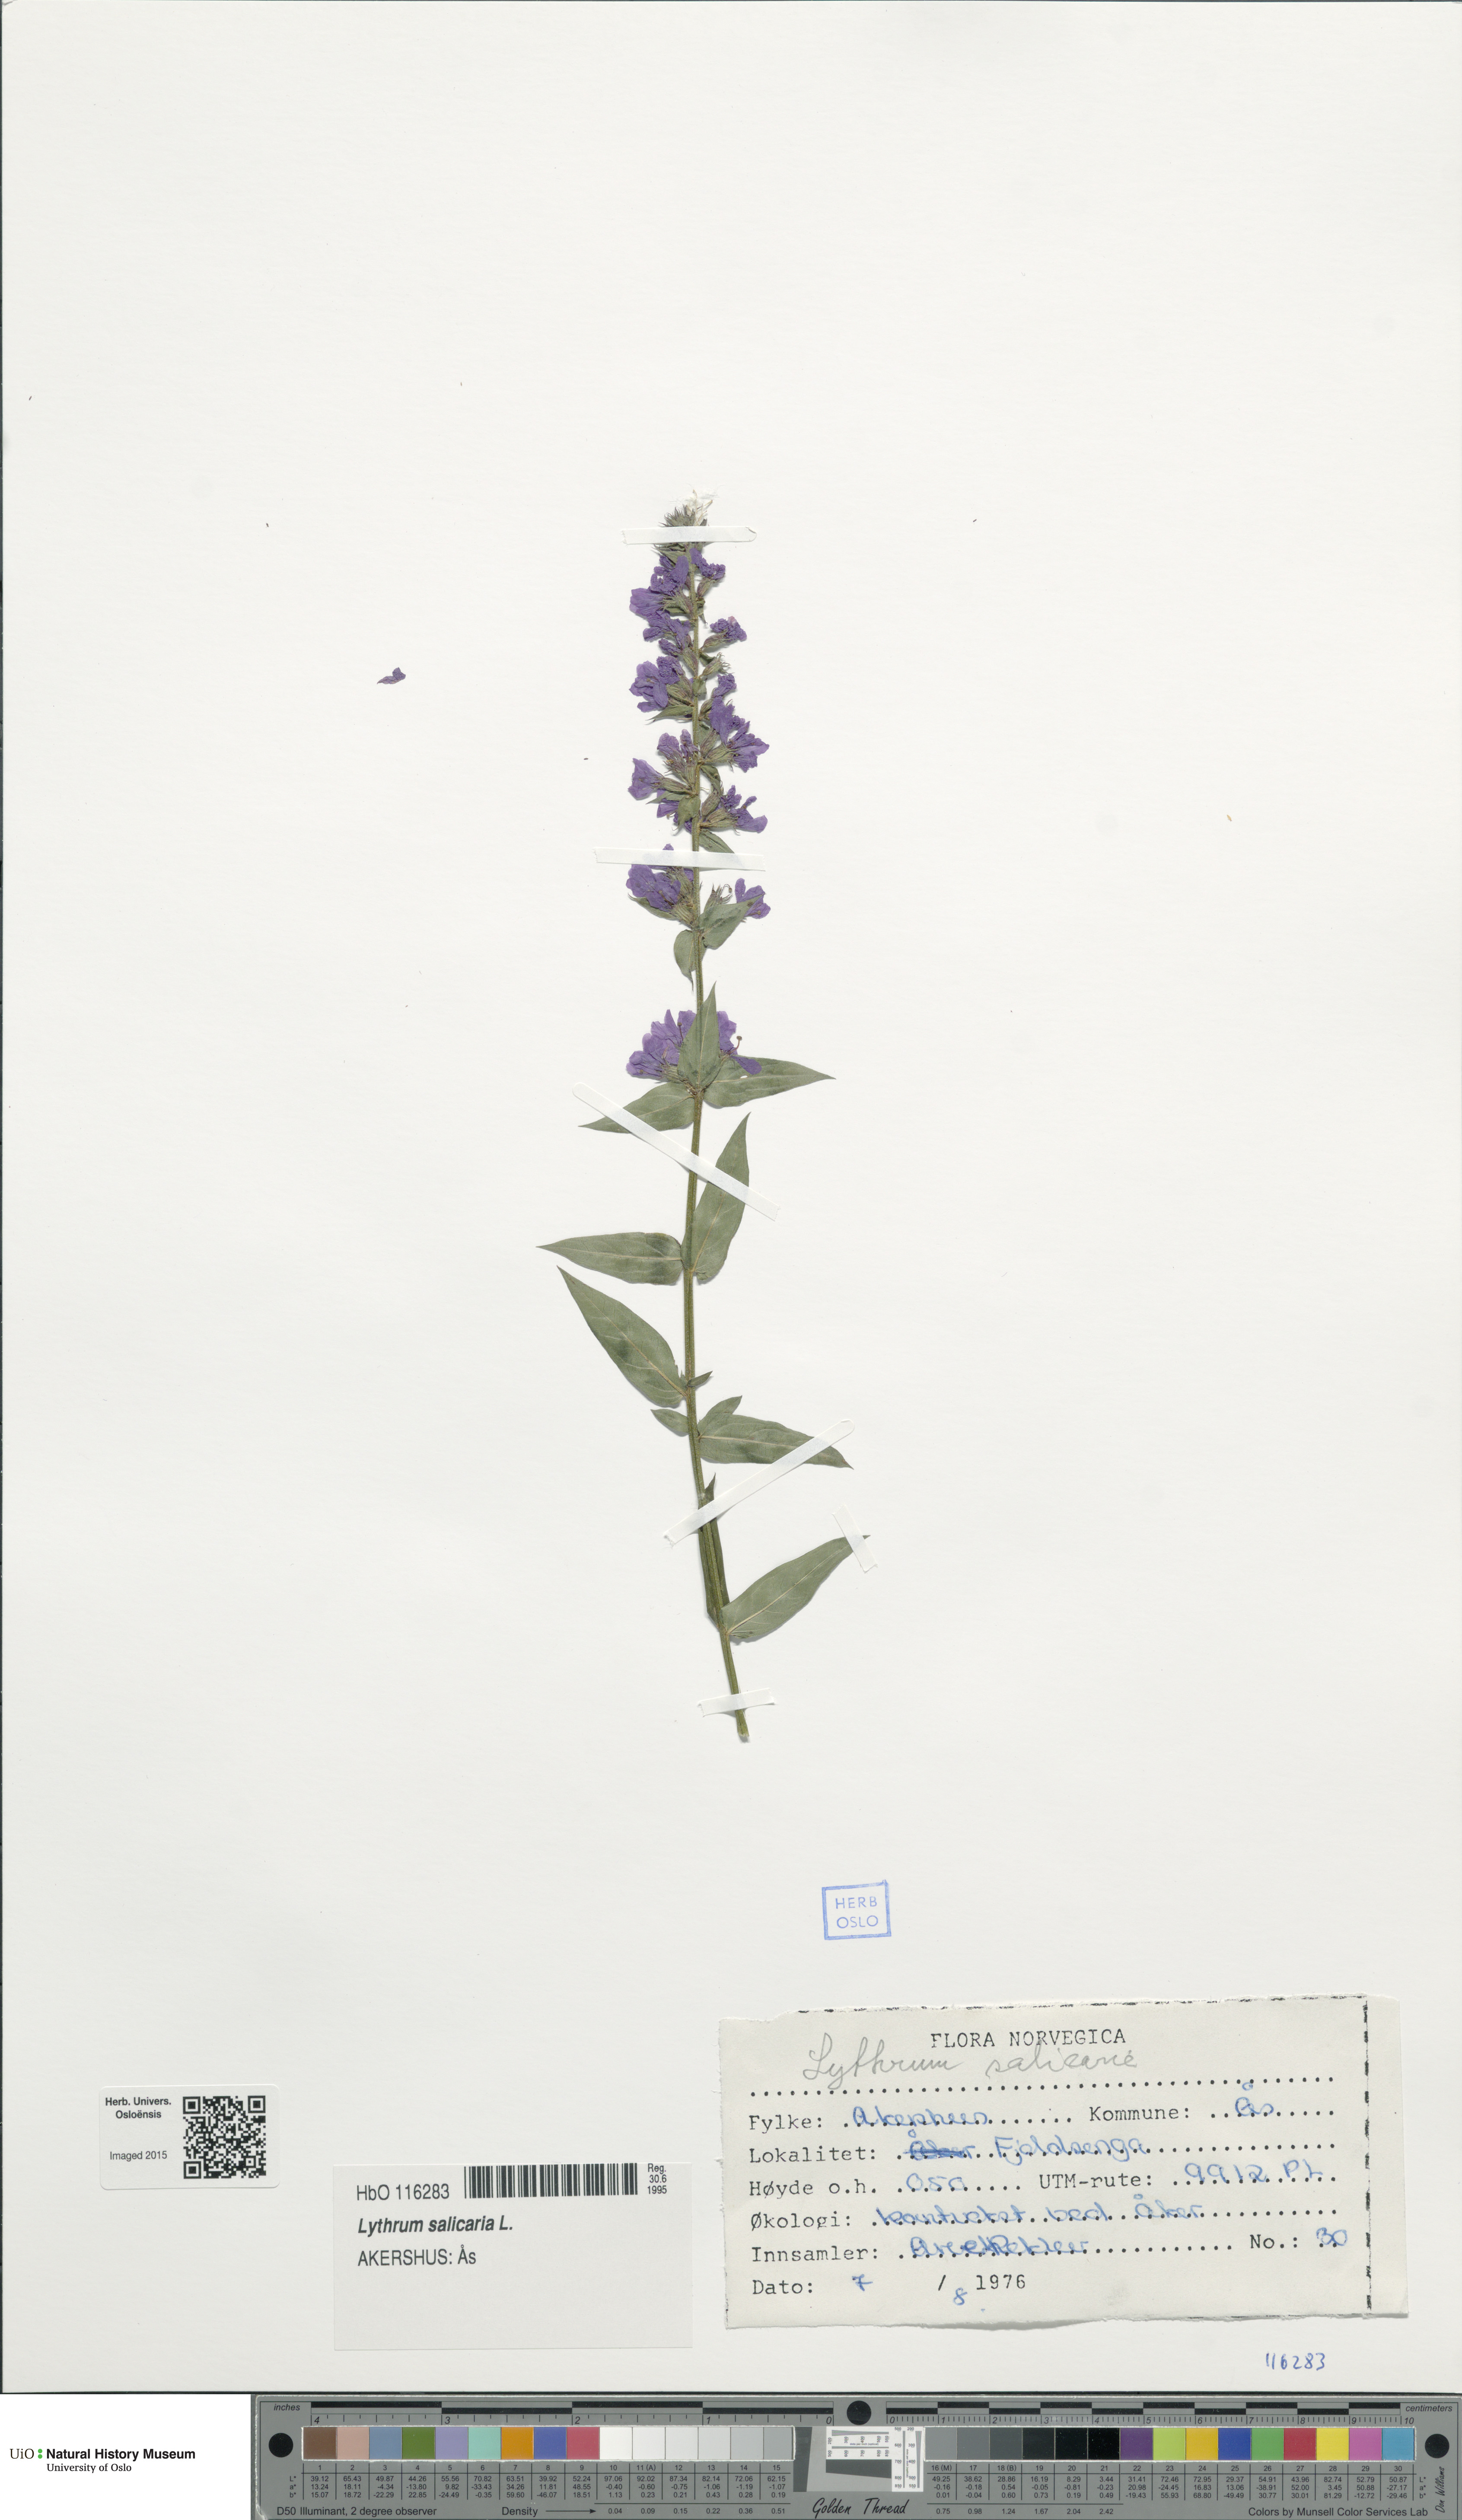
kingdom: Plantae
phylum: Tracheophyta
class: Magnoliopsida
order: Myrtales
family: Lythraceae
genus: Lythrum
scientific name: Lythrum salicaria
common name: Purple loosestrife
